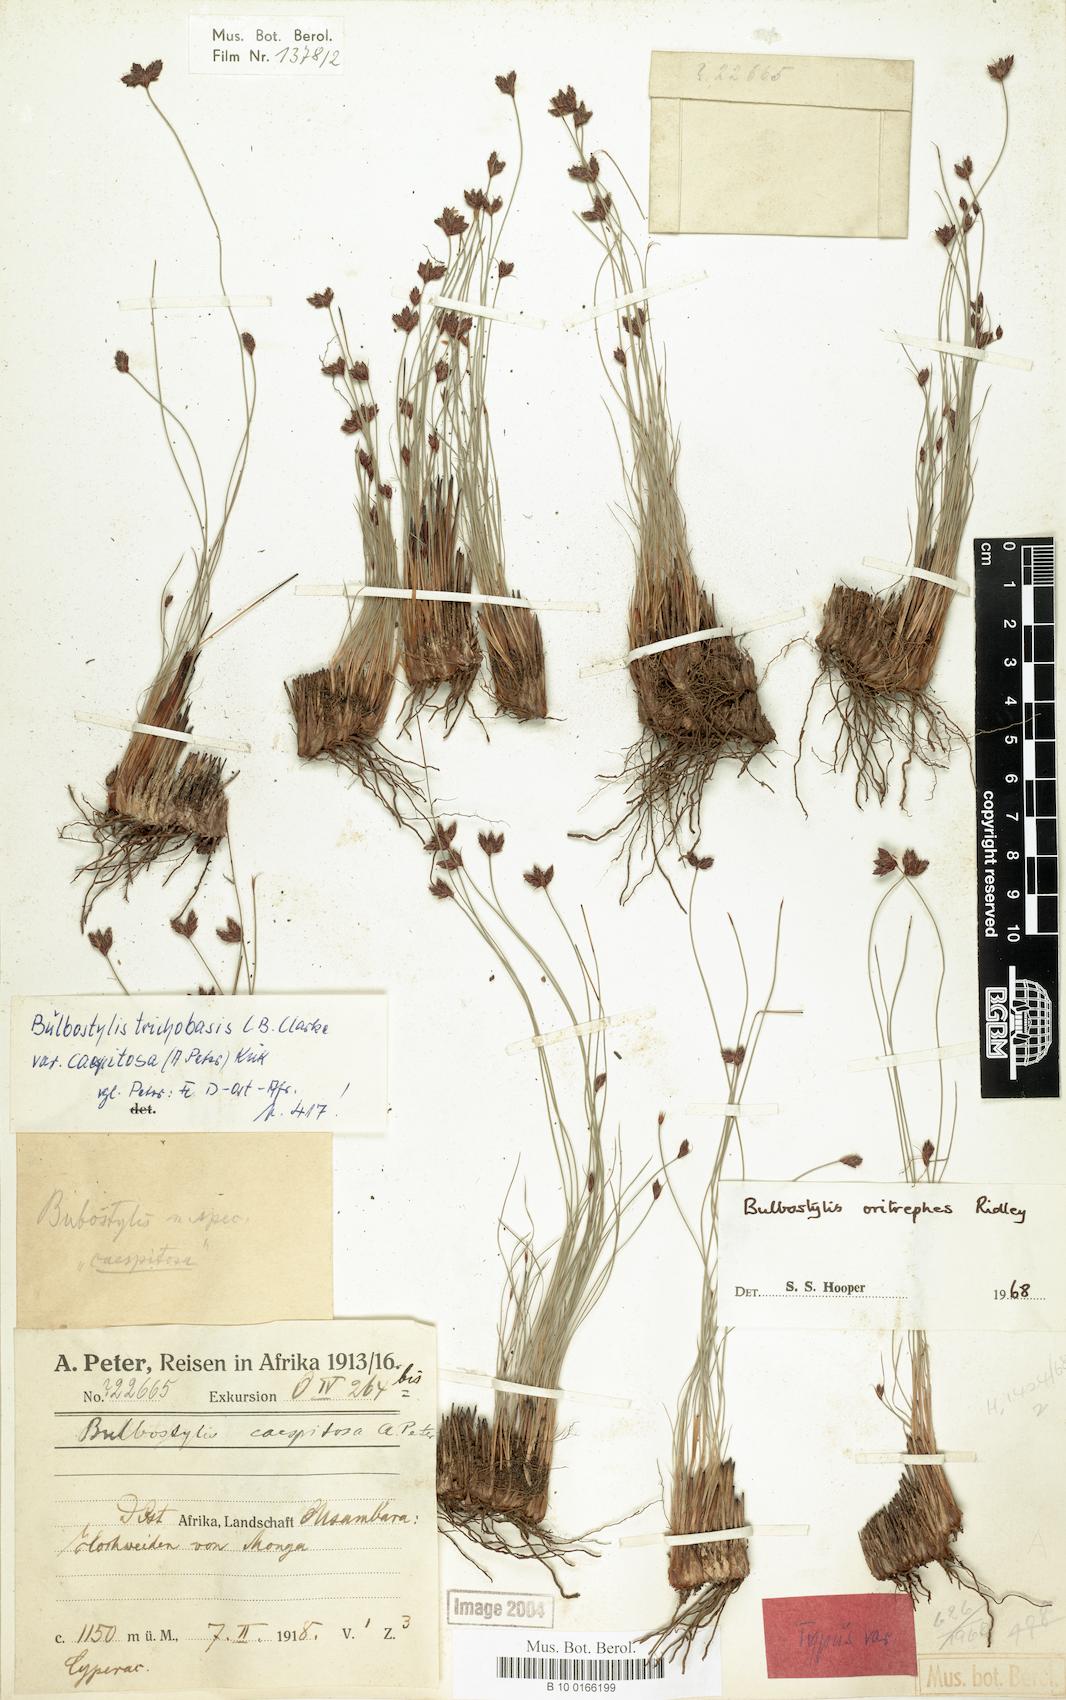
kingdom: Plantae
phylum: Tracheophyta
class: Liliopsida
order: Poales
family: Cyperaceae
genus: Bulbostylis
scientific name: Bulbostylis oritrephes
